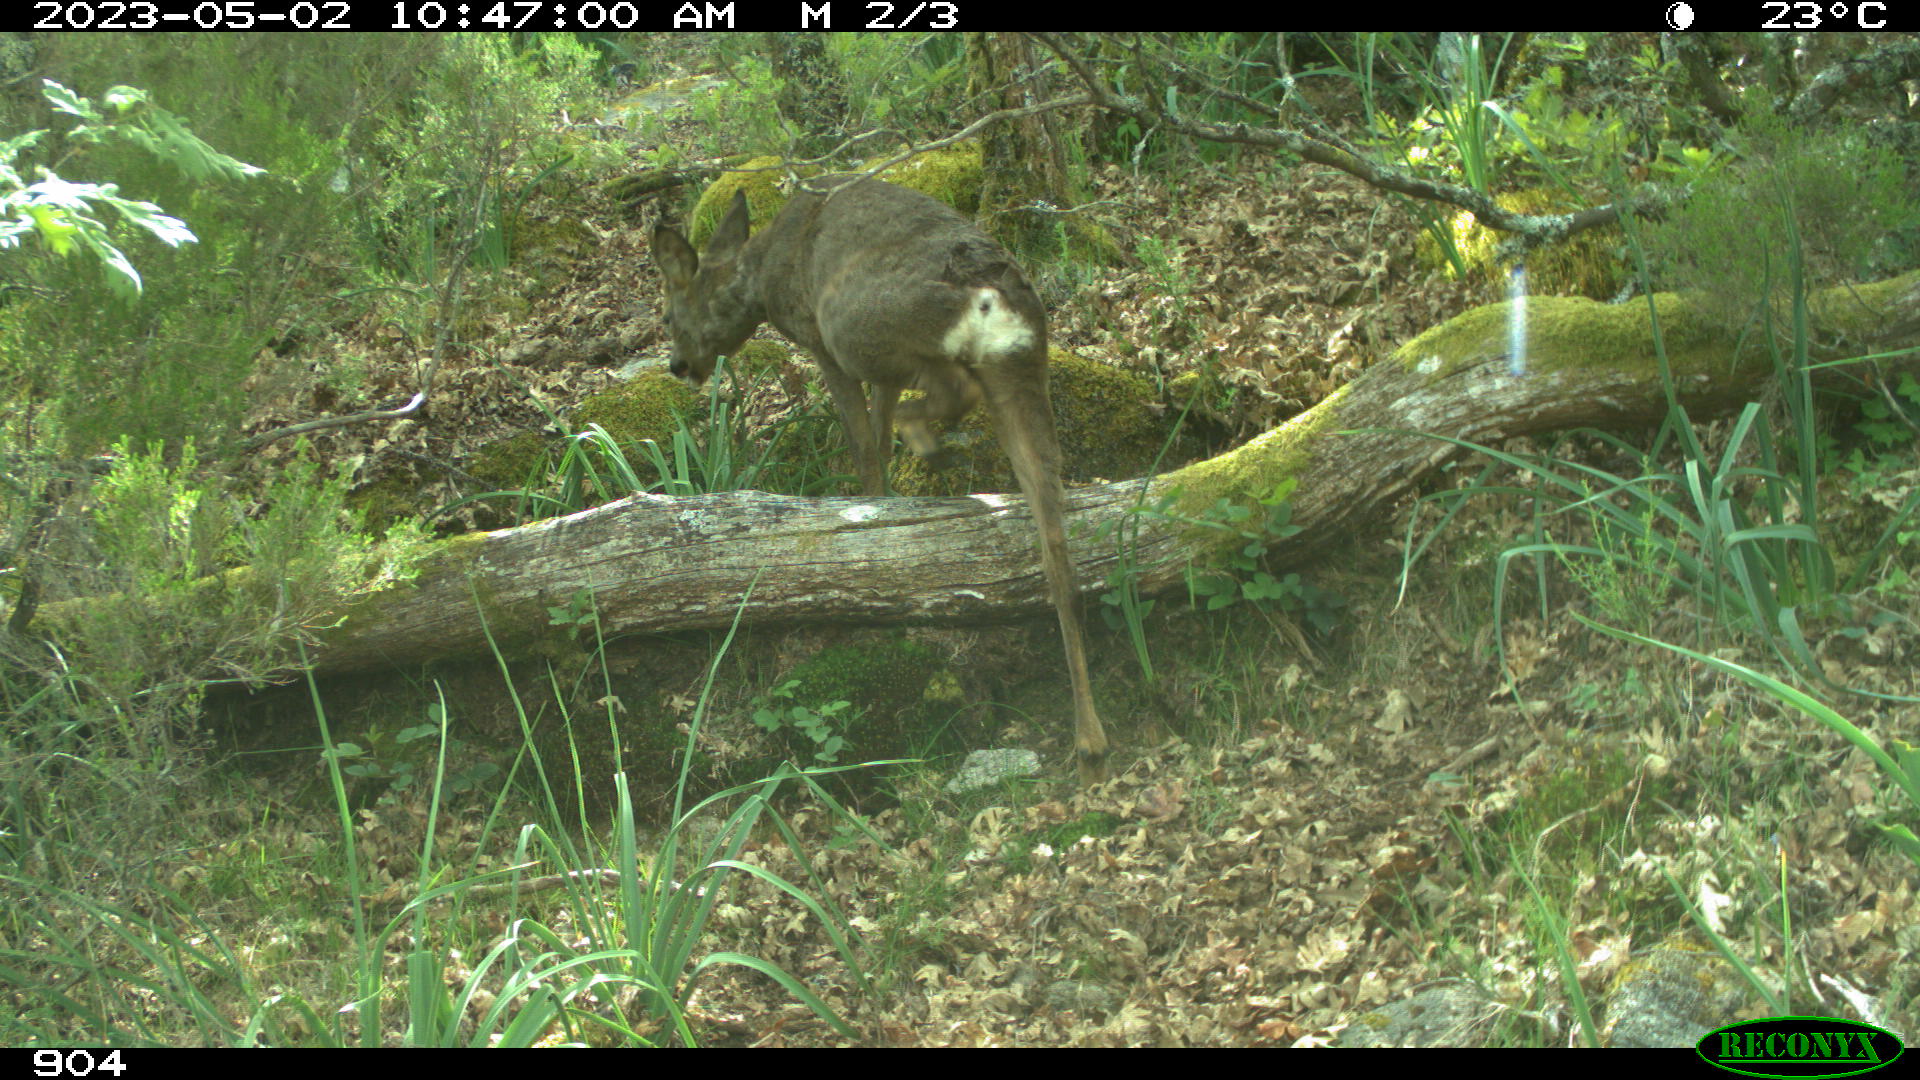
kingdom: Animalia
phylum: Chordata
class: Mammalia
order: Artiodactyla
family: Cervidae
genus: Capreolus
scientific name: Capreolus capreolus
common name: Western roe deer
